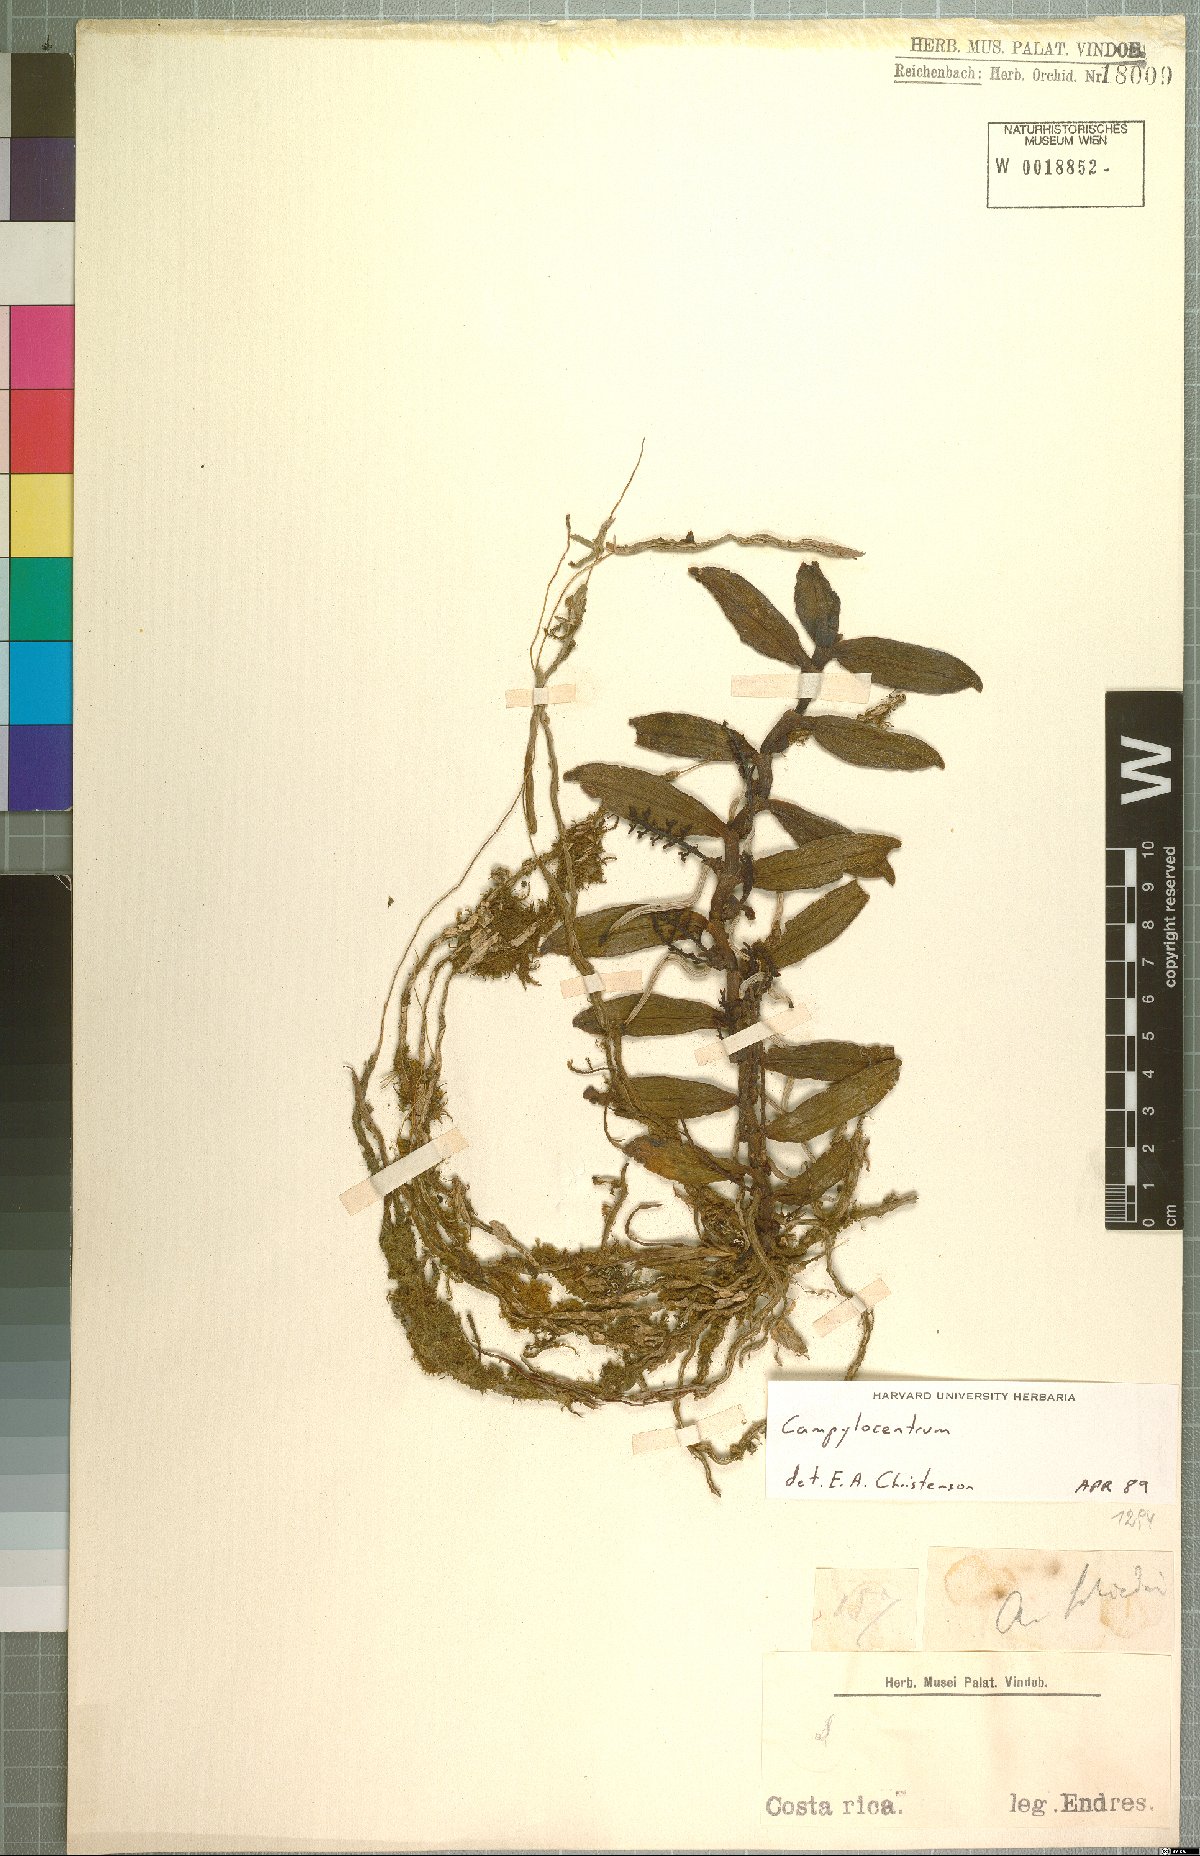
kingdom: Plantae
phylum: Tracheophyta
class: Liliopsida
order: Asparagales
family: Orchidaceae
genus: Campylocentrum
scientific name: Campylocentrum
